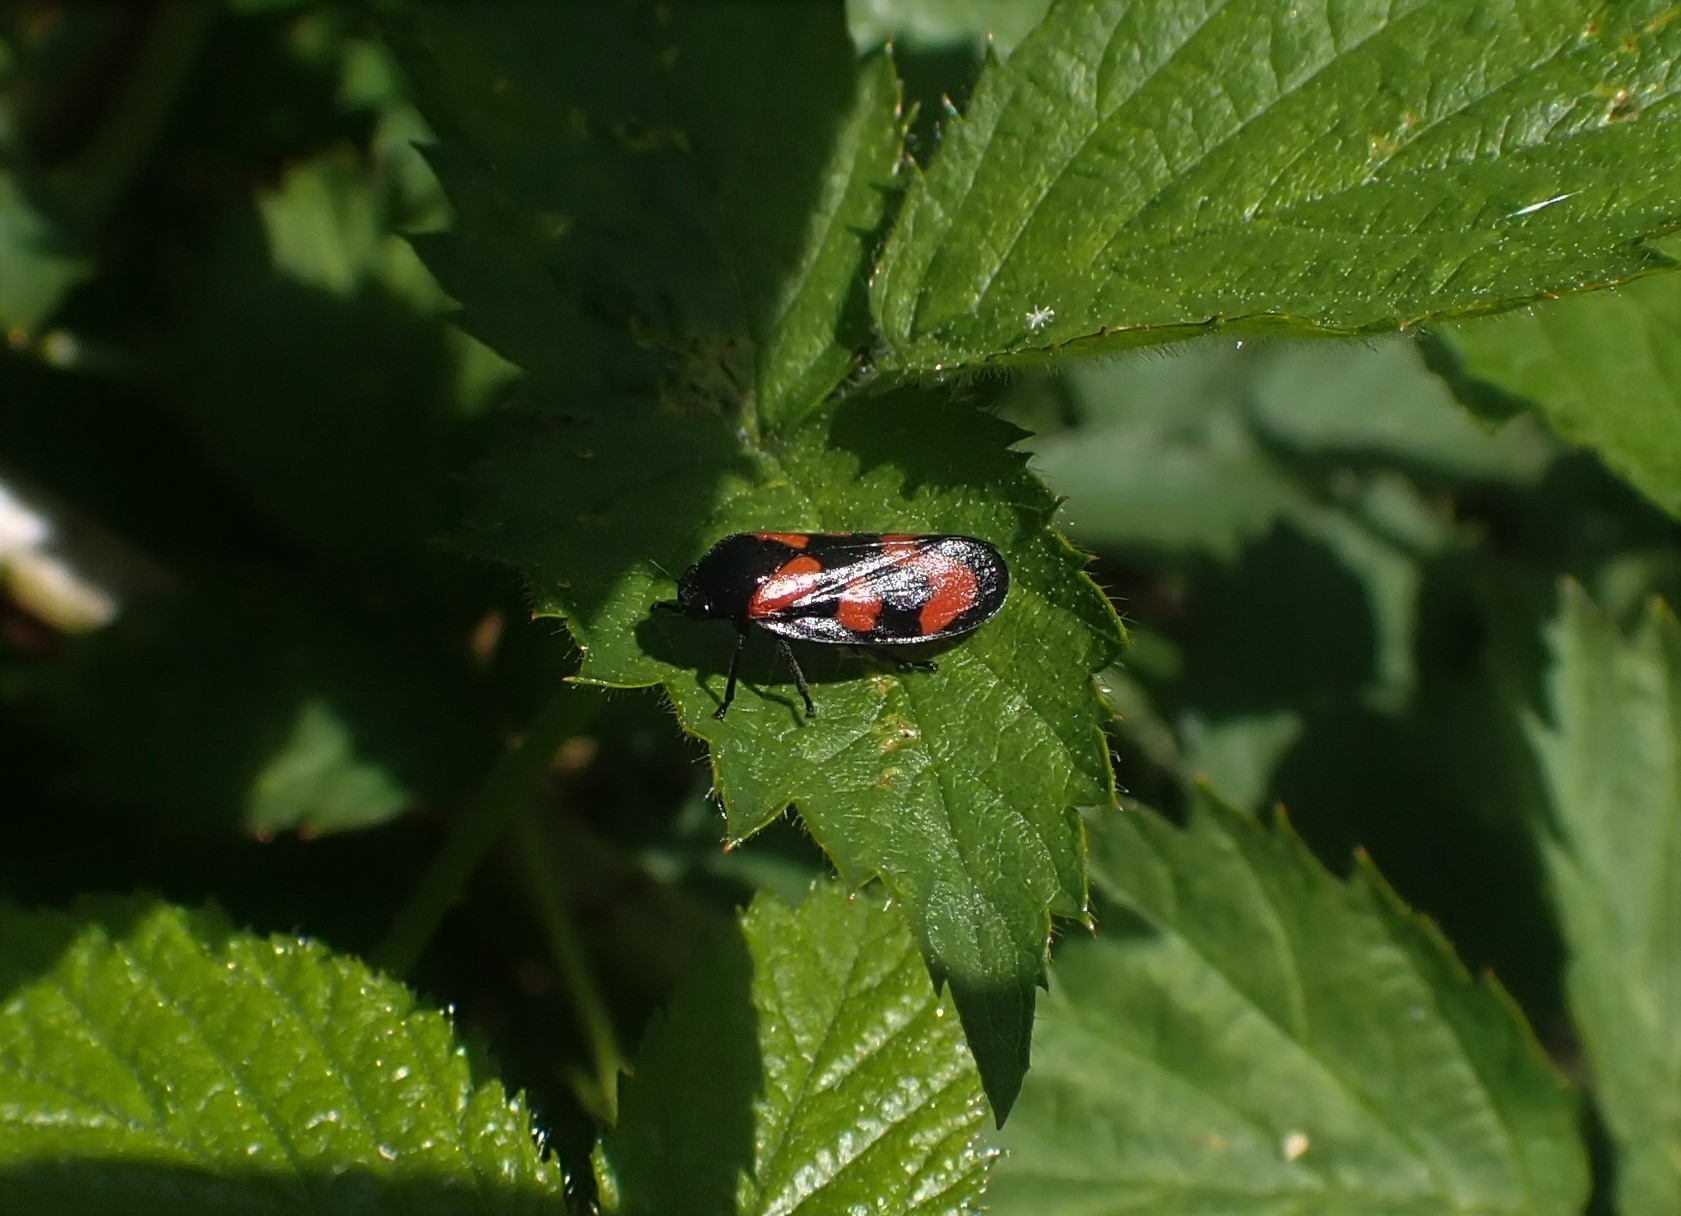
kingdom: Animalia
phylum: Arthropoda
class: Insecta
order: Hemiptera
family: Cercopidae
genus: Cercopis
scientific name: Cercopis vulnerata
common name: Blodcikade
